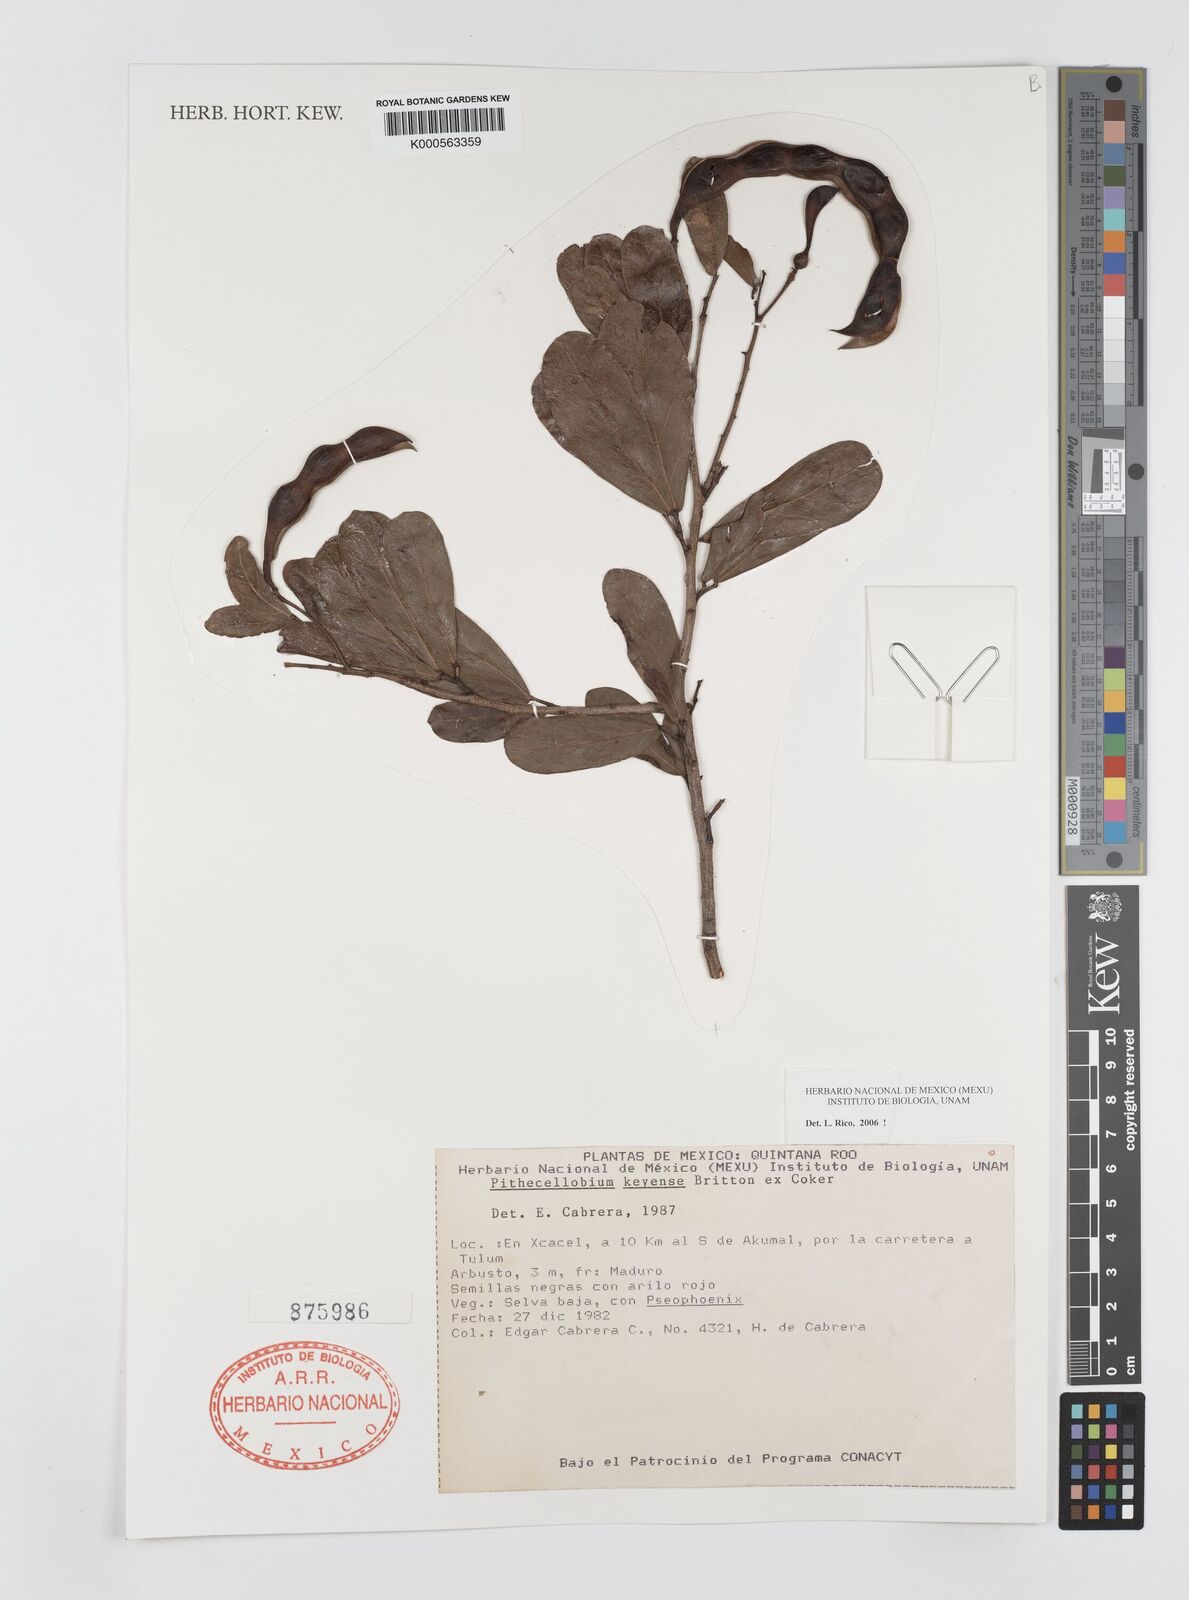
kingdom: Plantae
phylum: Tracheophyta
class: Magnoliopsida
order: Fabales
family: Fabaceae
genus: Pithecellobium
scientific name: Pithecellobium
